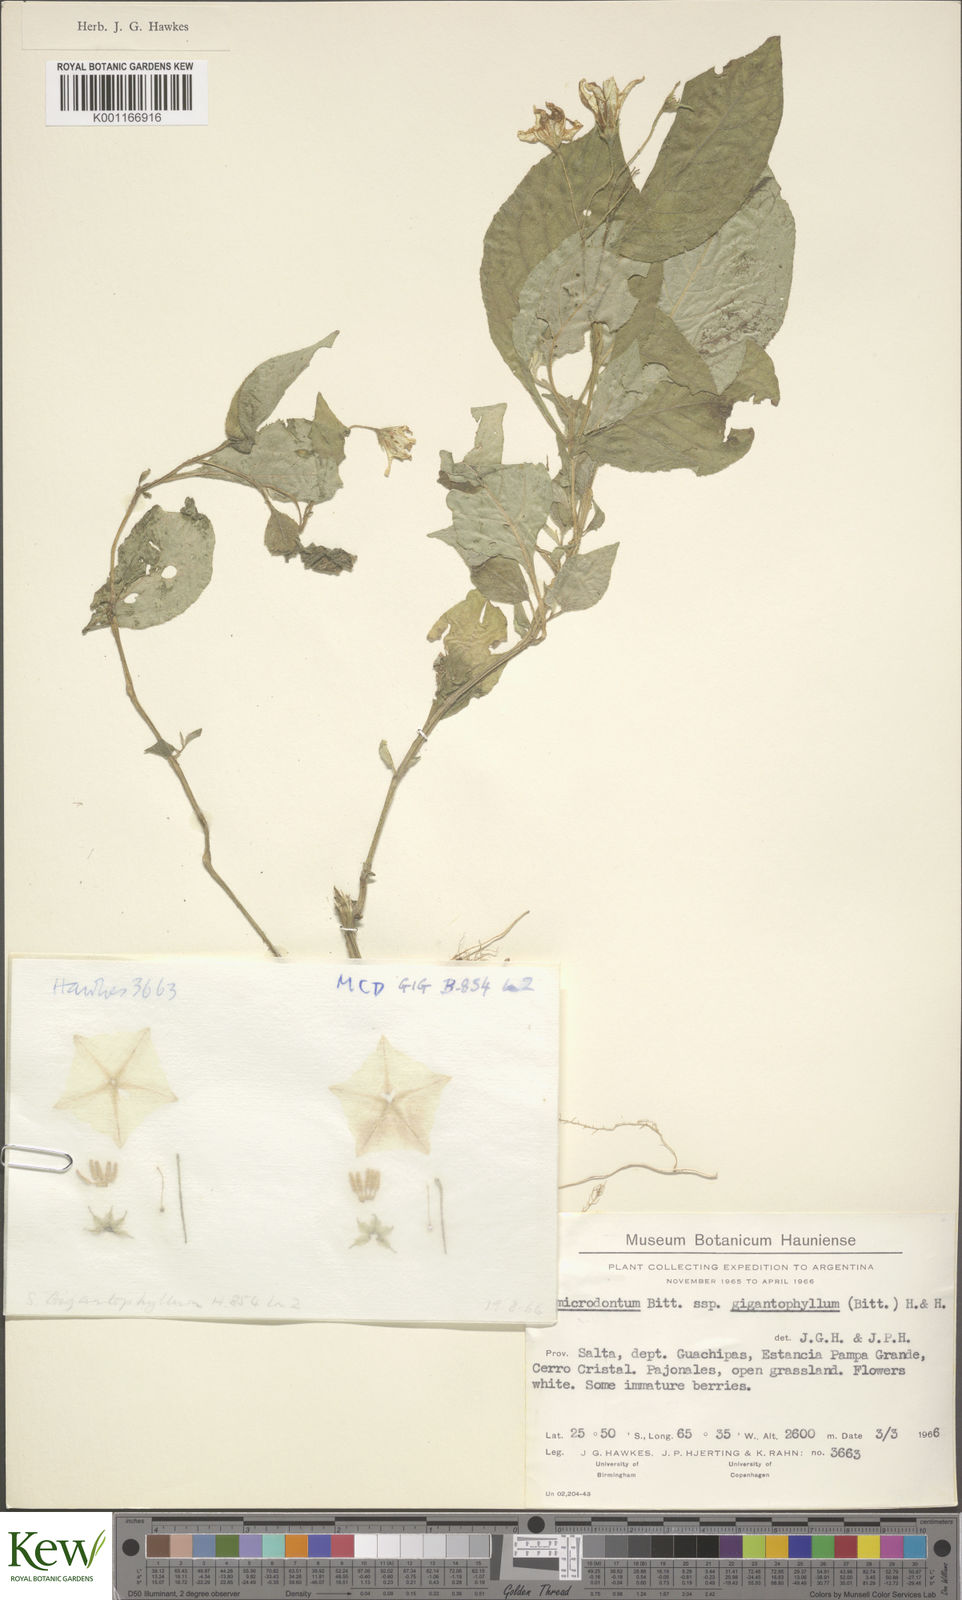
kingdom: Plantae
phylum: Tracheophyta
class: Magnoliopsida
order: Solanales
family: Solanaceae
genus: Solanum
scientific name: Solanum microdontum
